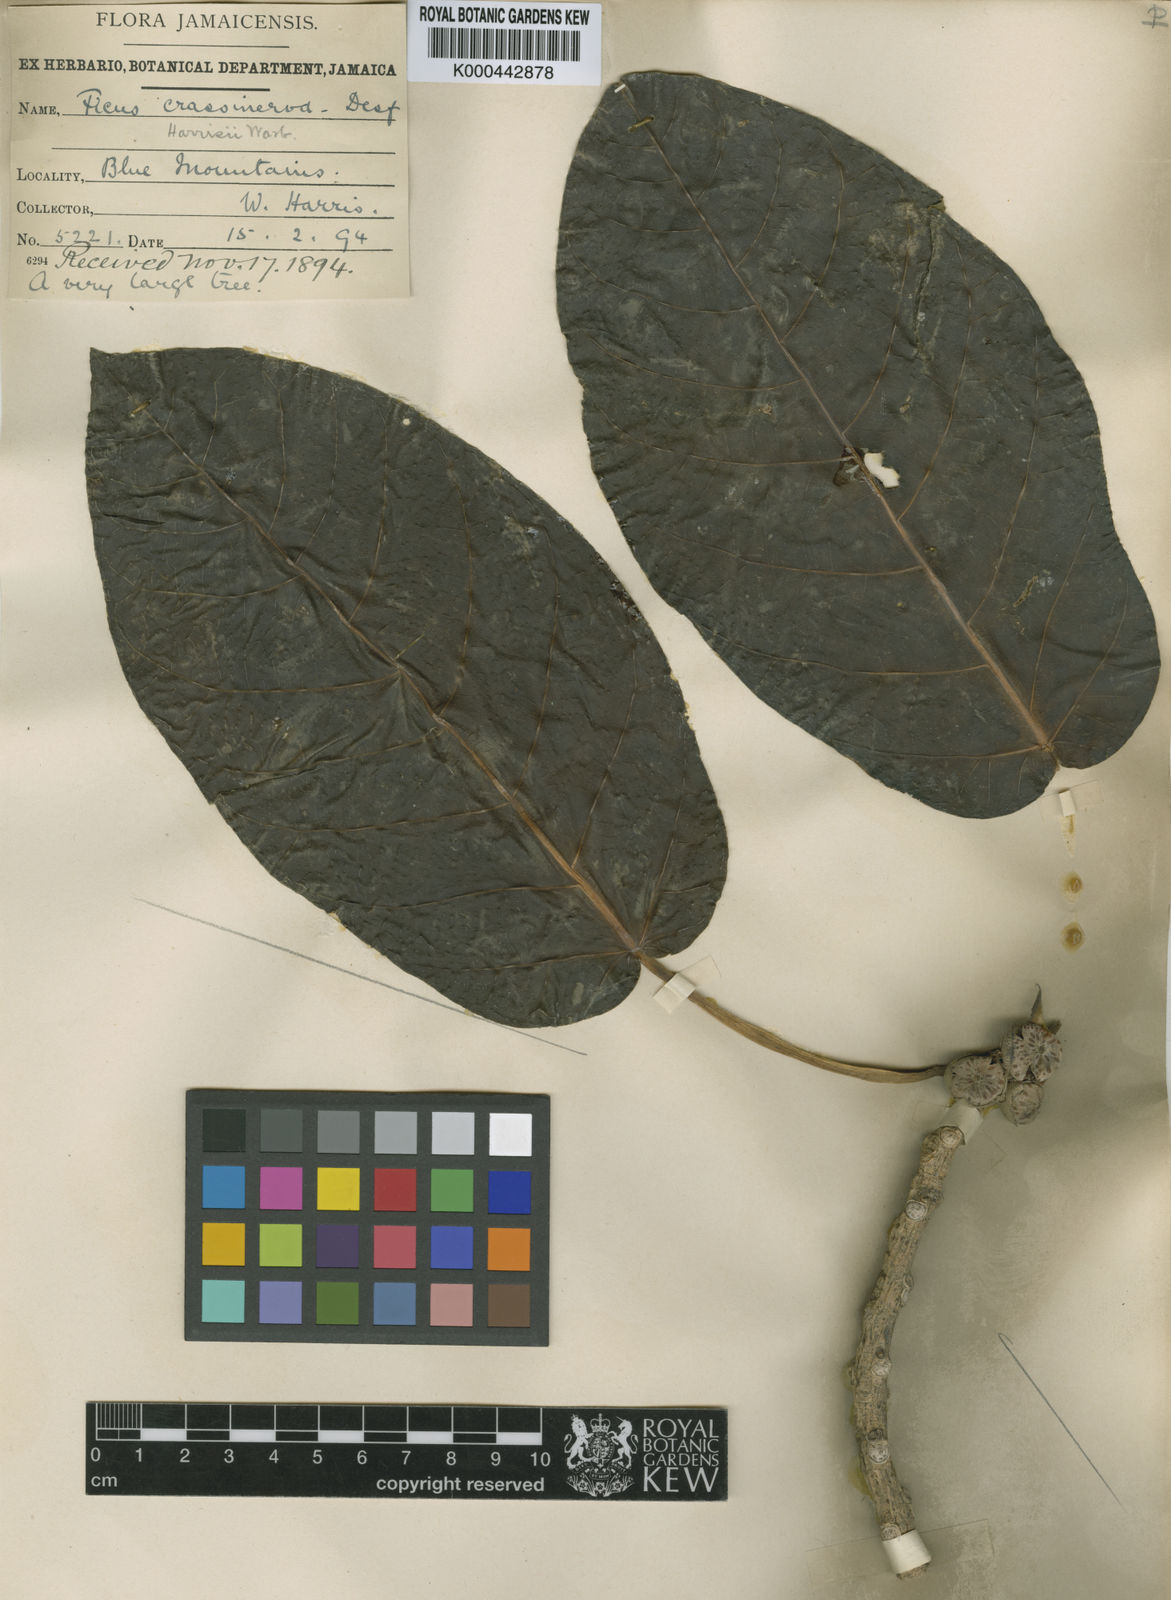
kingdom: Plantae
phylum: Tracheophyta
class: Magnoliopsida
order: Rosales
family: Moraceae
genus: Ficus
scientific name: Ficus membranacea
